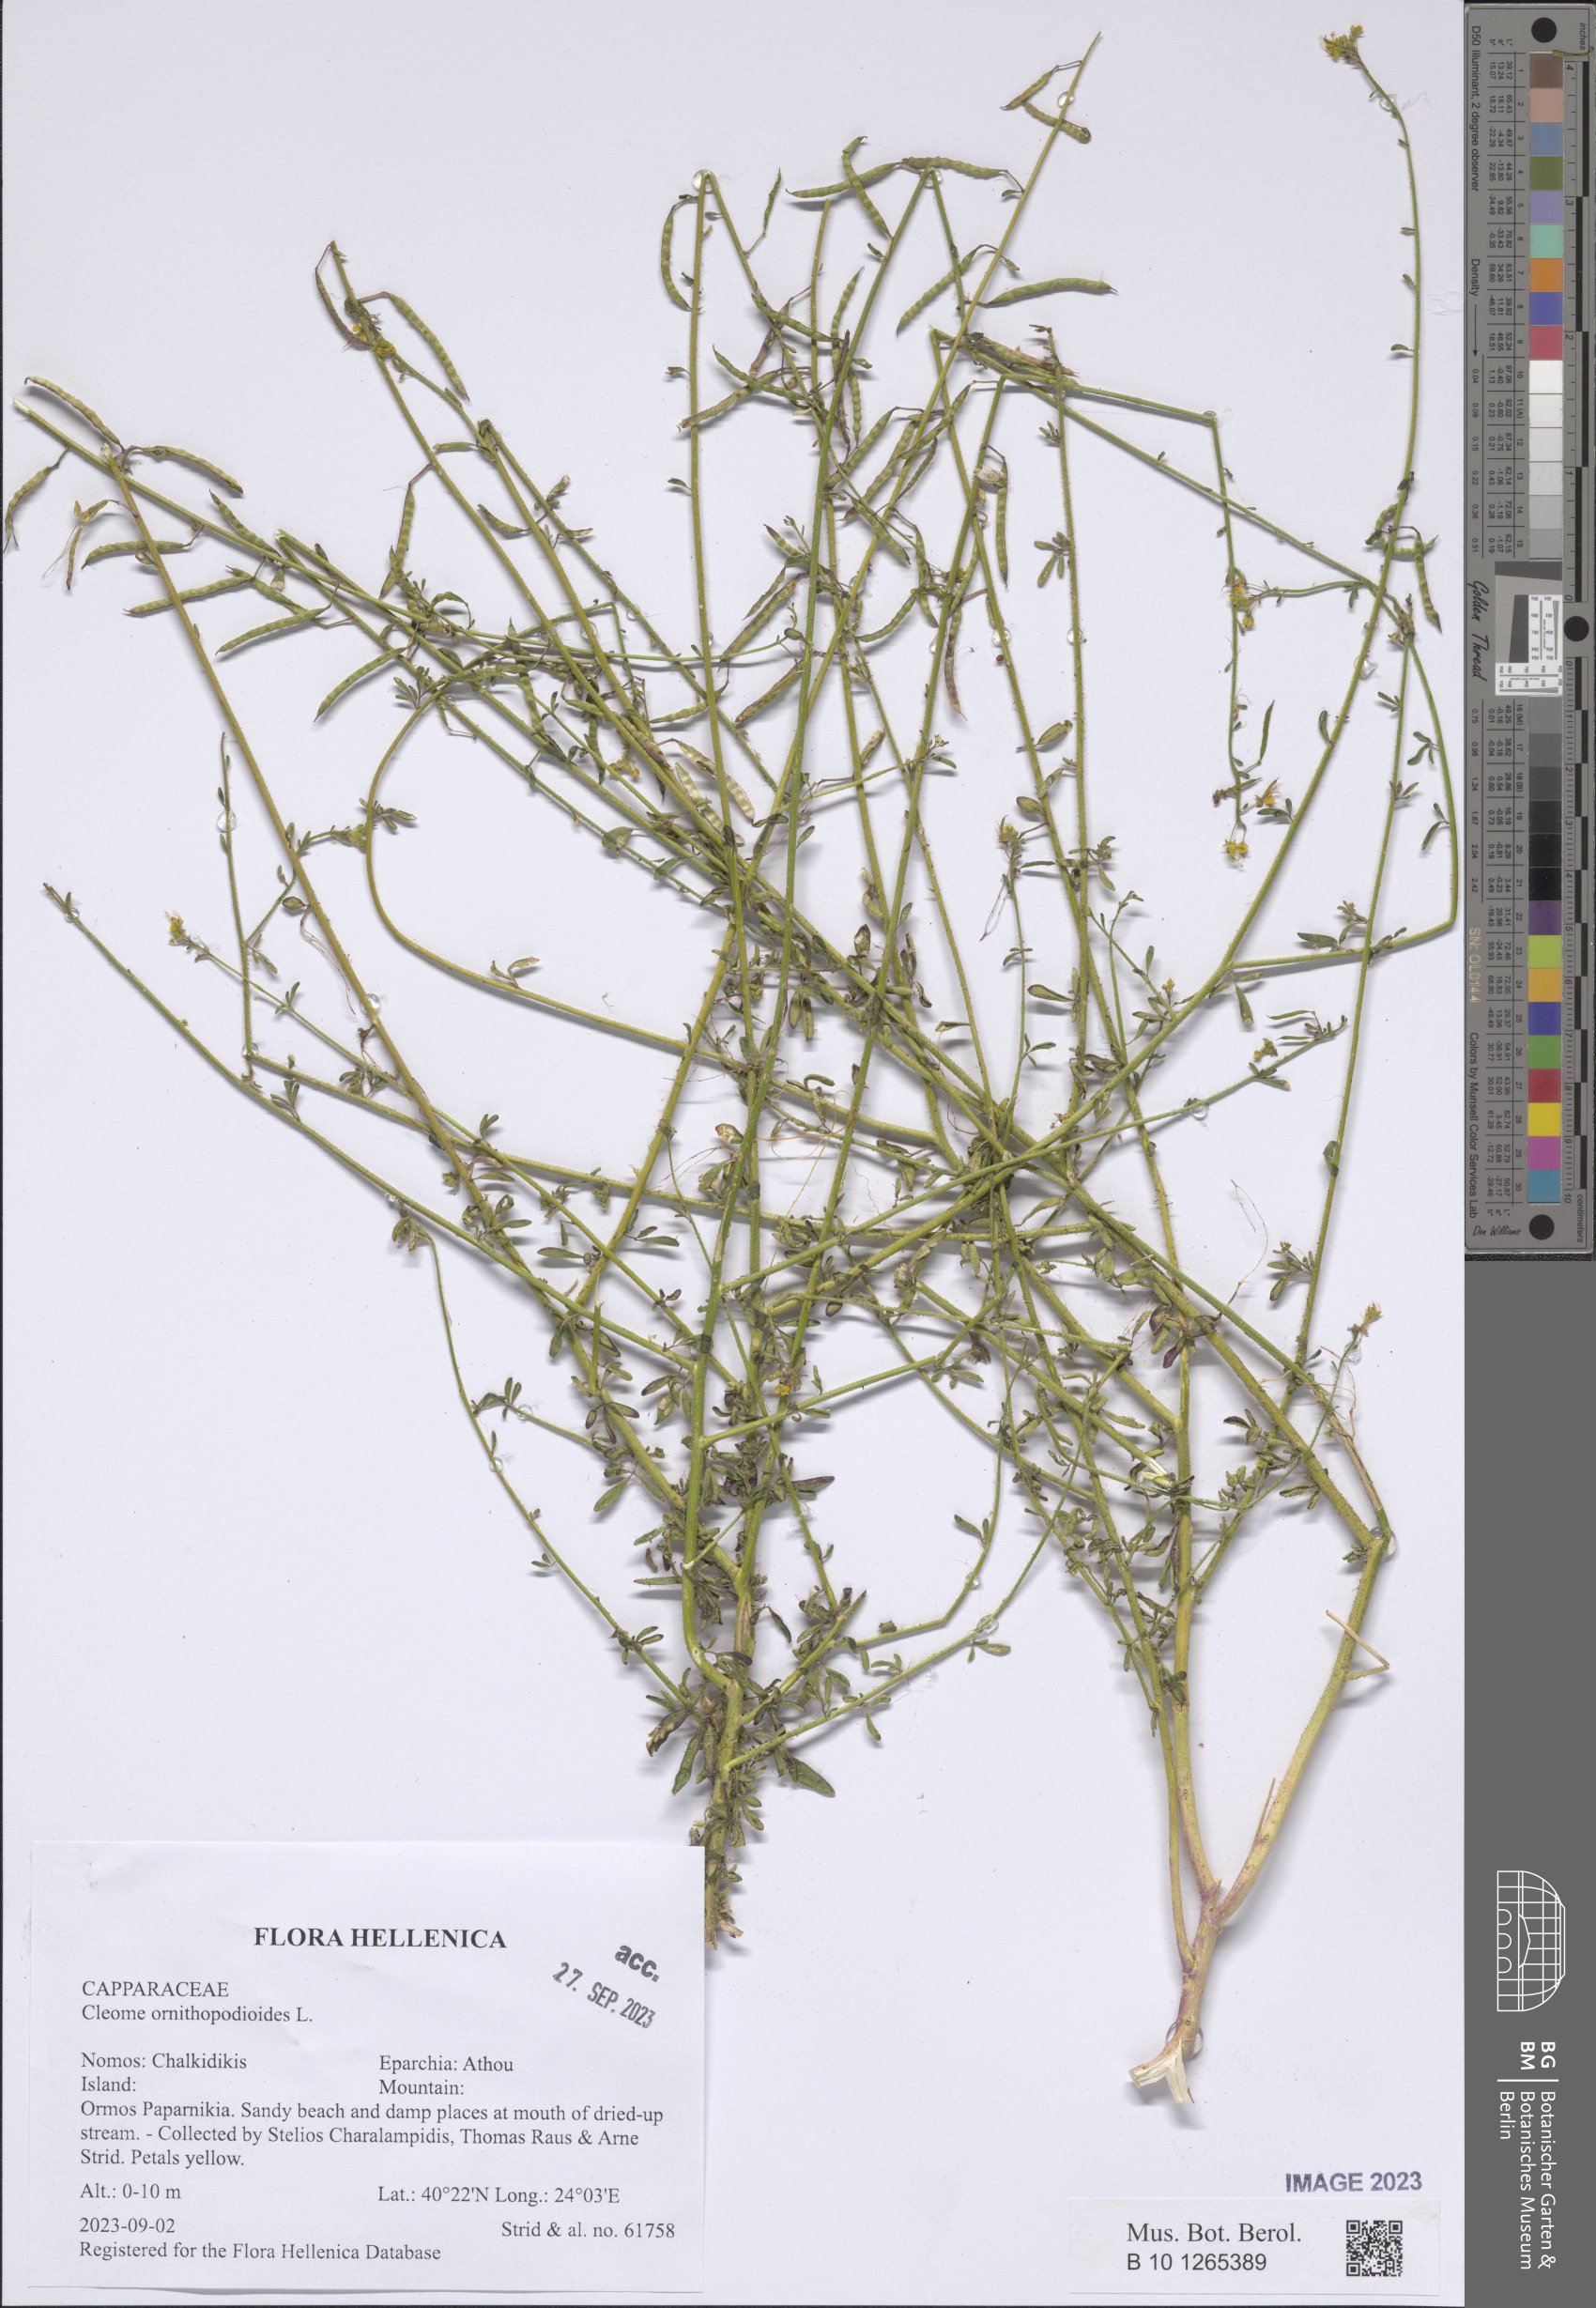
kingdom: Plantae
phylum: Tracheophyta
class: Magnoliopsida
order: Brassicales
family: Cleomaceae
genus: Cleome
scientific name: Cleome ornithopodioides
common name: Bird spiderflower
